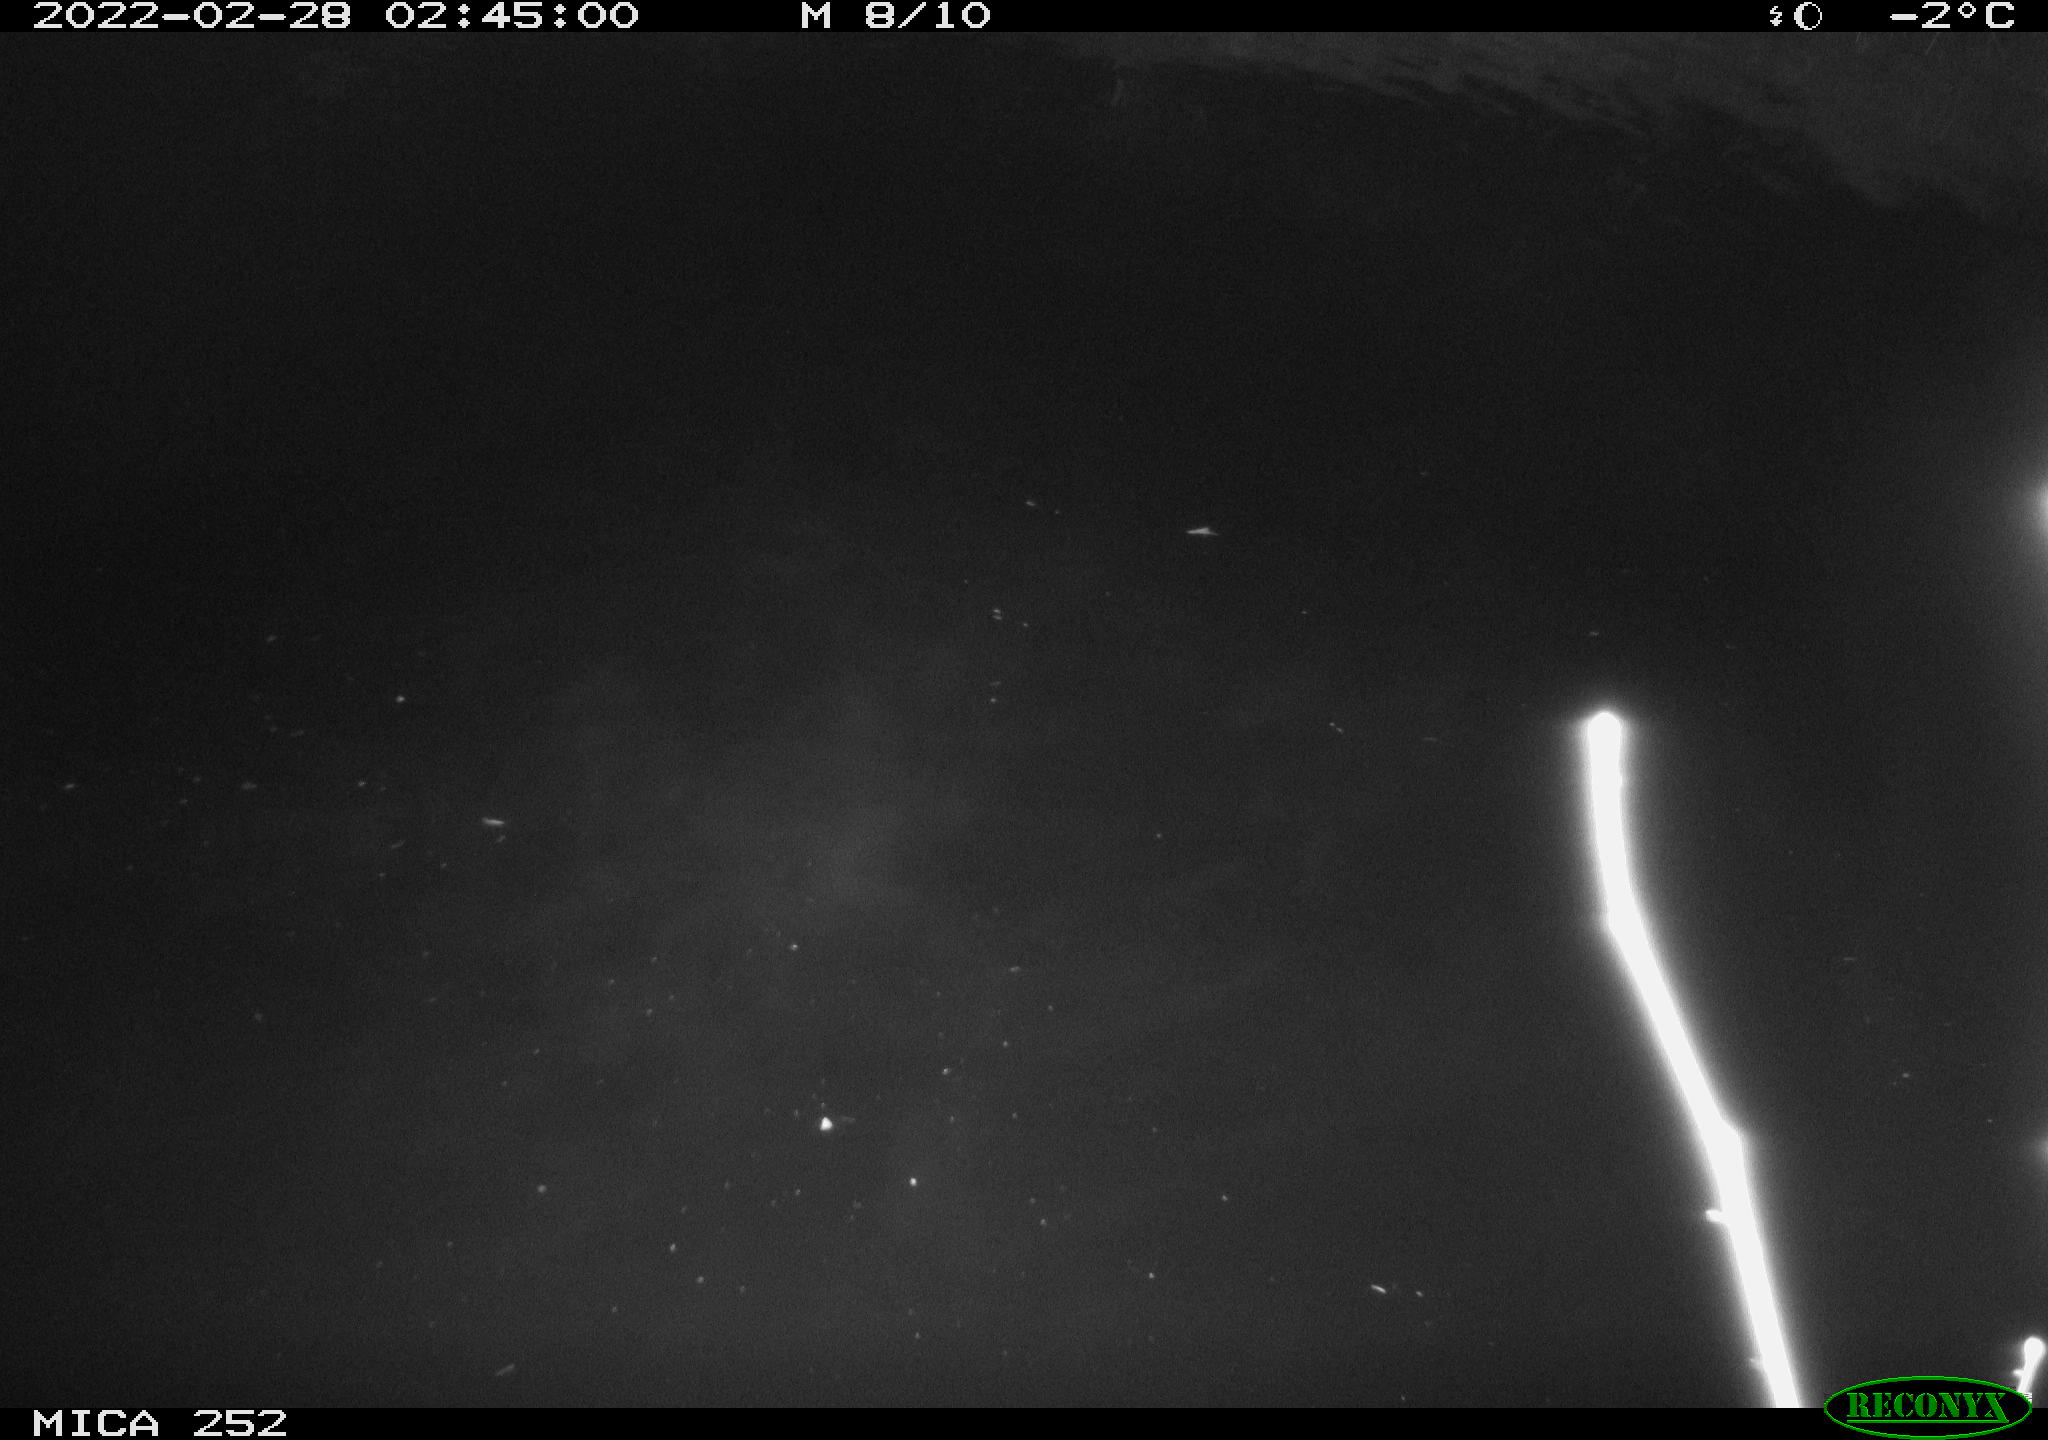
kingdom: Animalia
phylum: Chordata
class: Mammalia
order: Rodentia
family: Castoridae
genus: Castor
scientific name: Castor fiber
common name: Eurasian beaver
